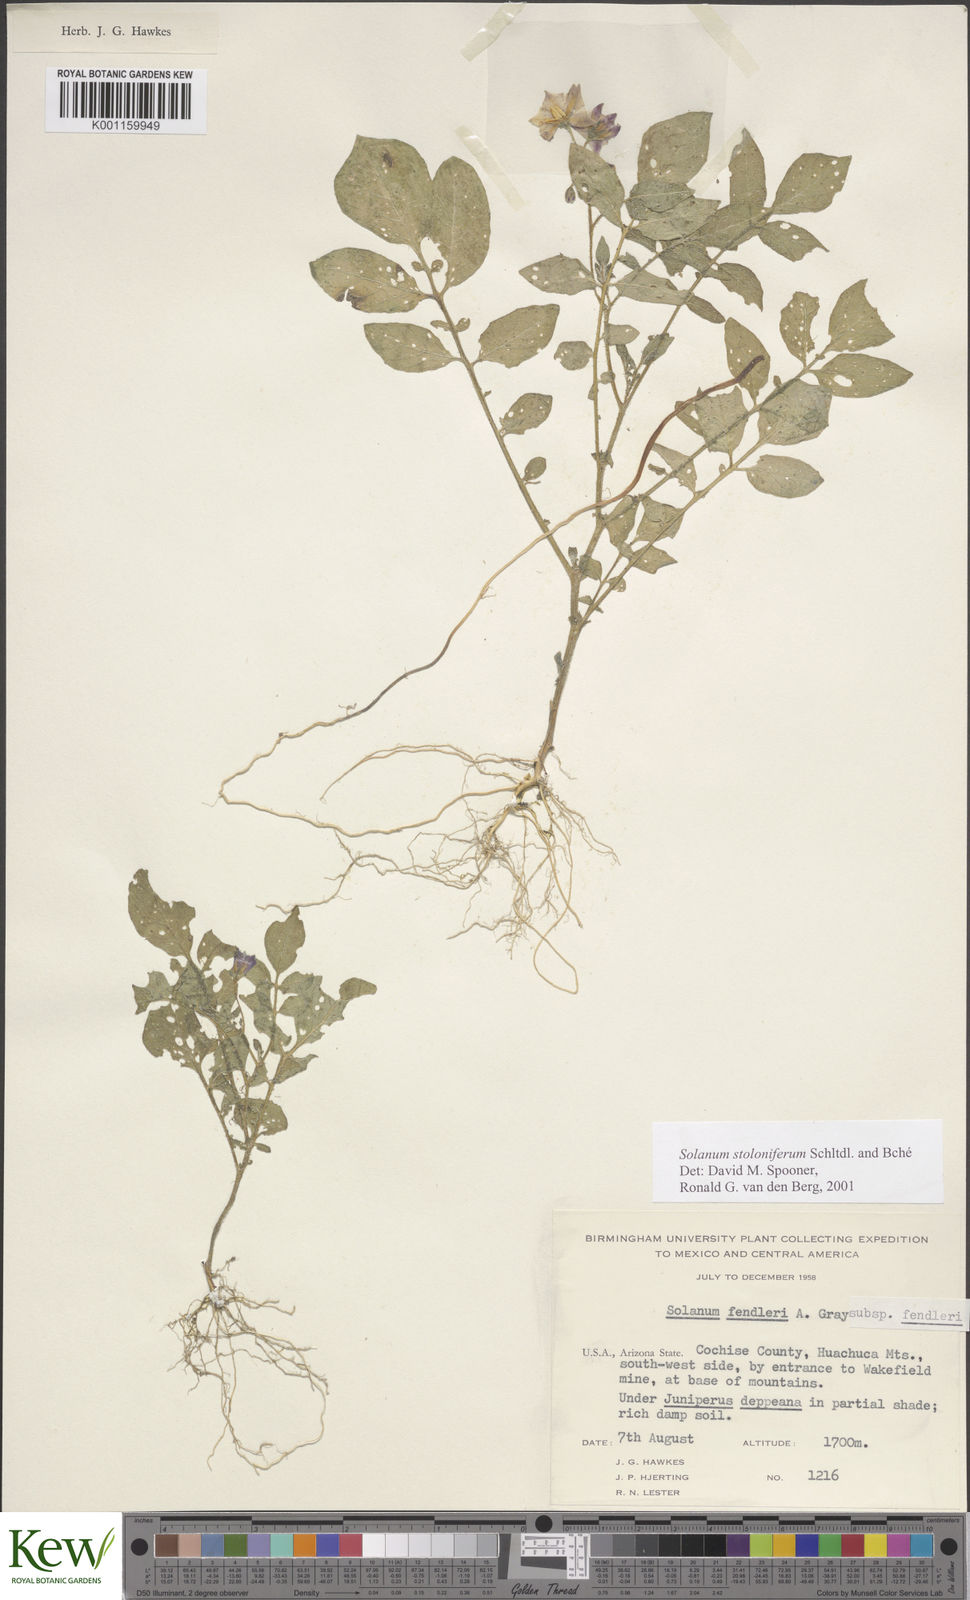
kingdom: Plantae
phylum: Tracheophyta
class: Magnoliopsida
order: Solanales
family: Solanaceae
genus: Solanum
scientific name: Solanum stoloniferum
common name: Fendler's nighshade
